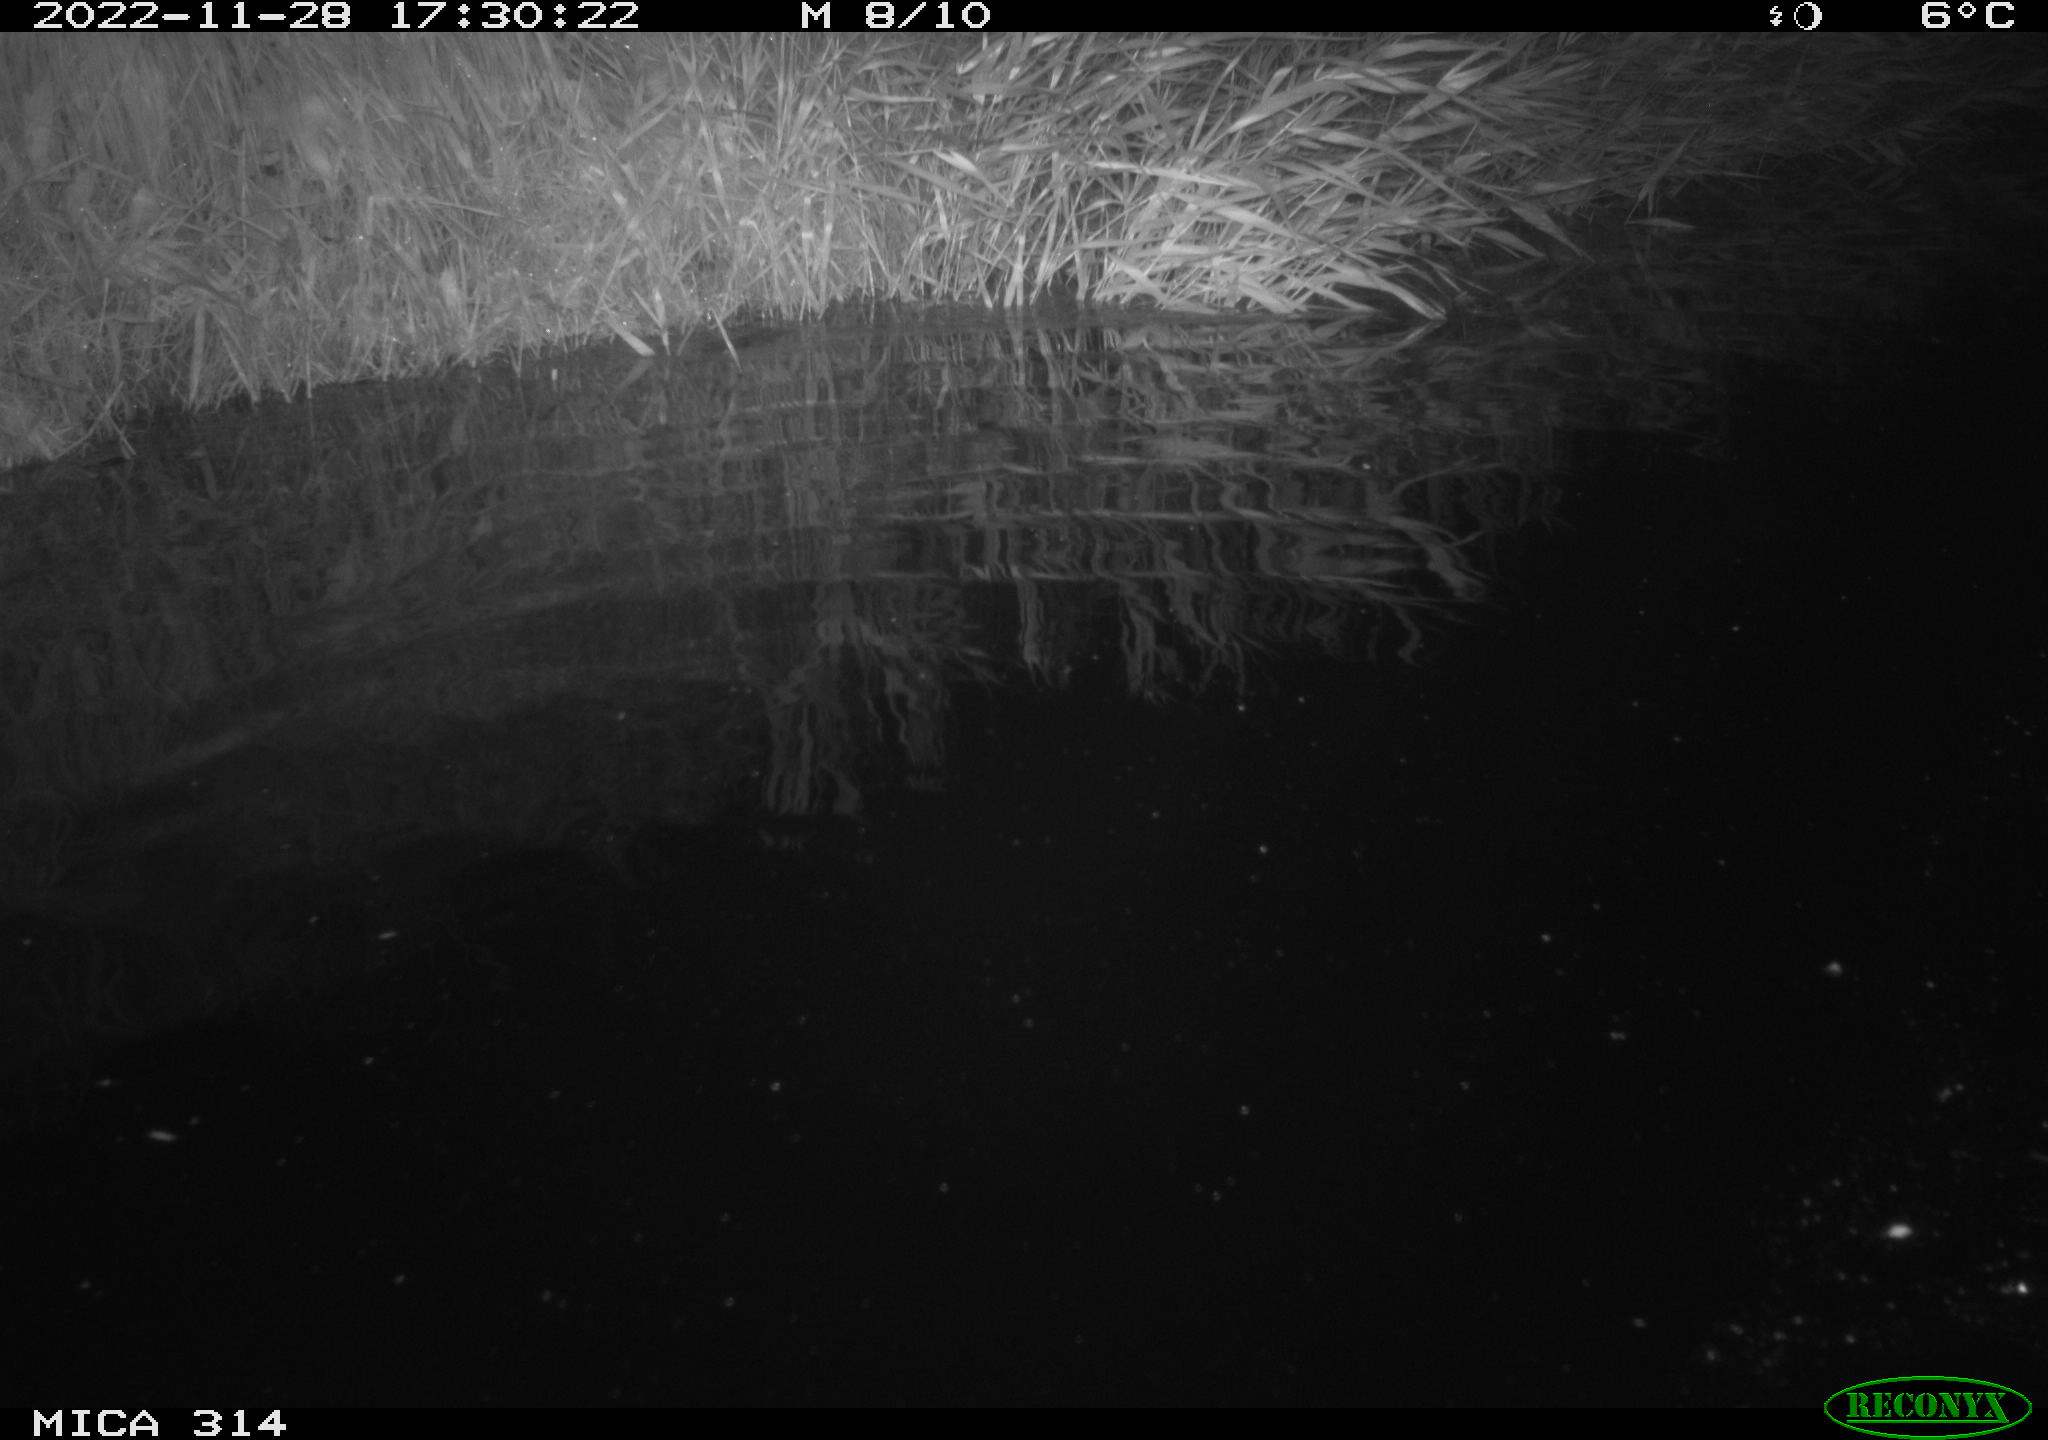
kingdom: Animalia
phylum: Chordata
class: Mammalia
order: Rodentia
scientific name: Rodentia
